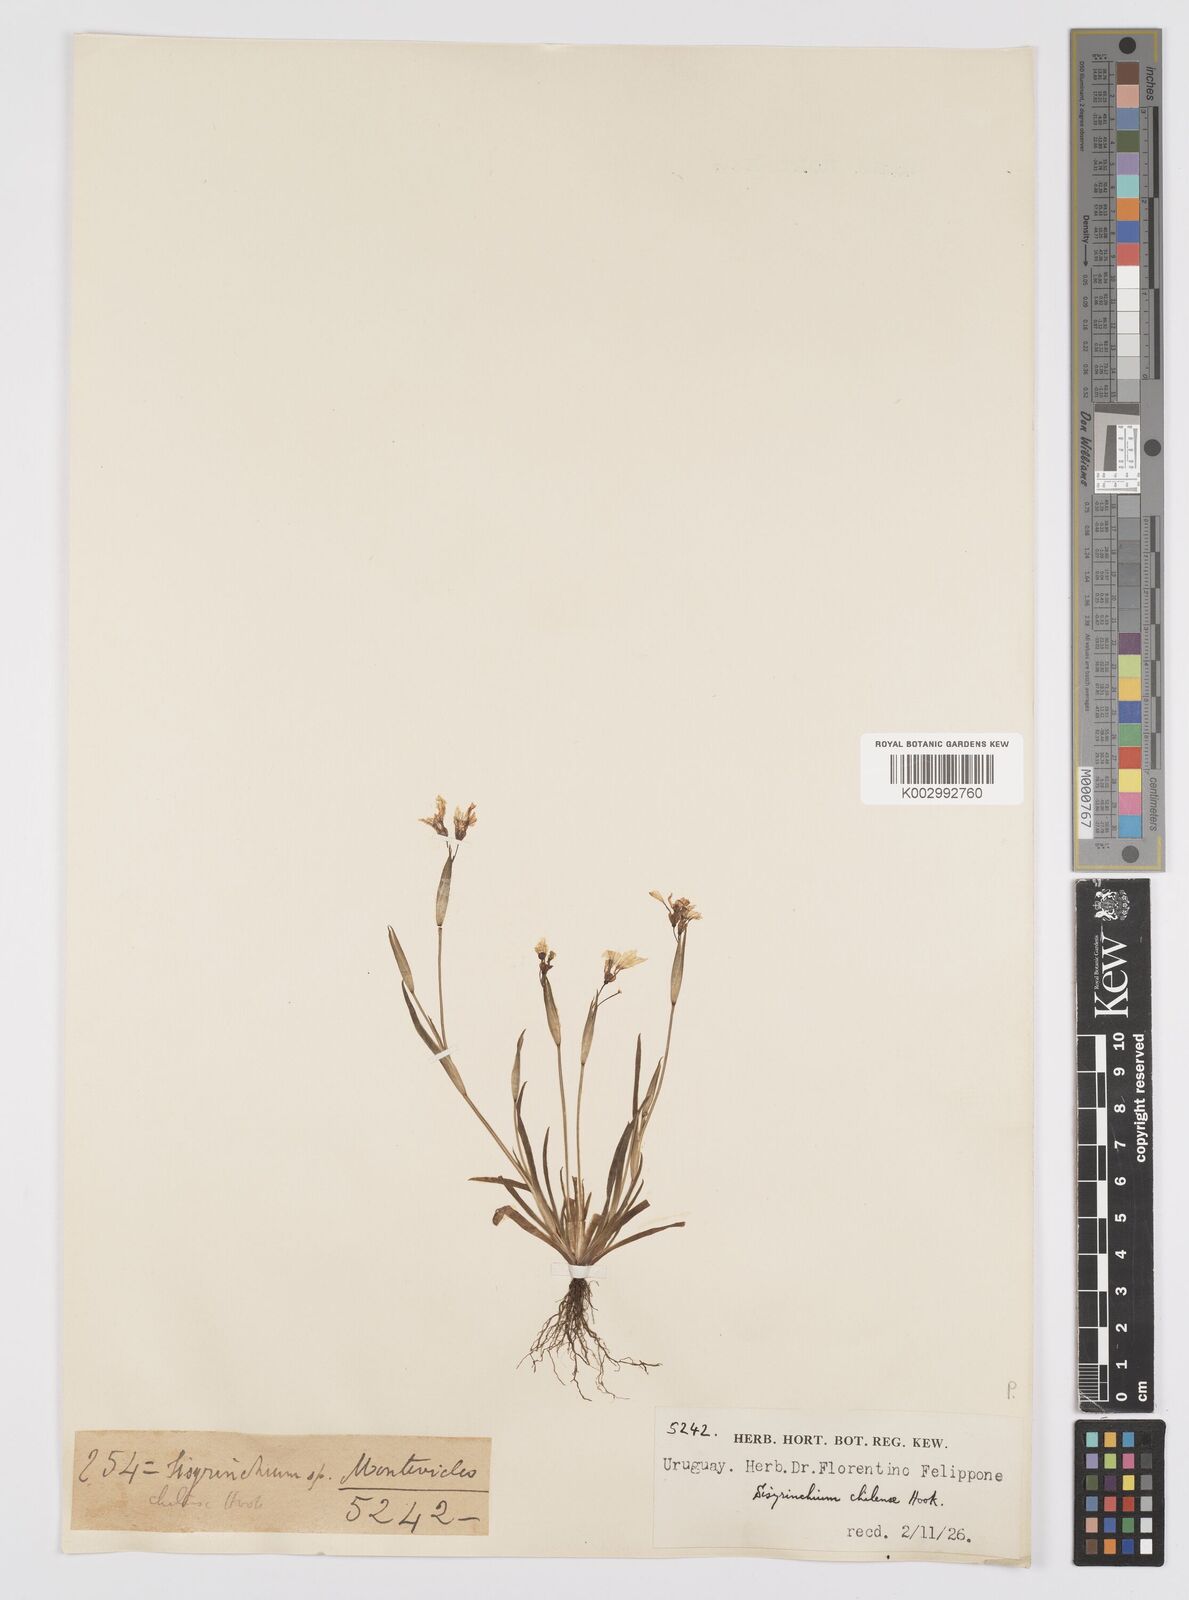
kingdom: Plantae
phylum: Tracheophyta
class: Liliopsida
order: Asparagales
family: Iridaceae
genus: Sisyrinchium
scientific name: Sisyrinchium chilense
